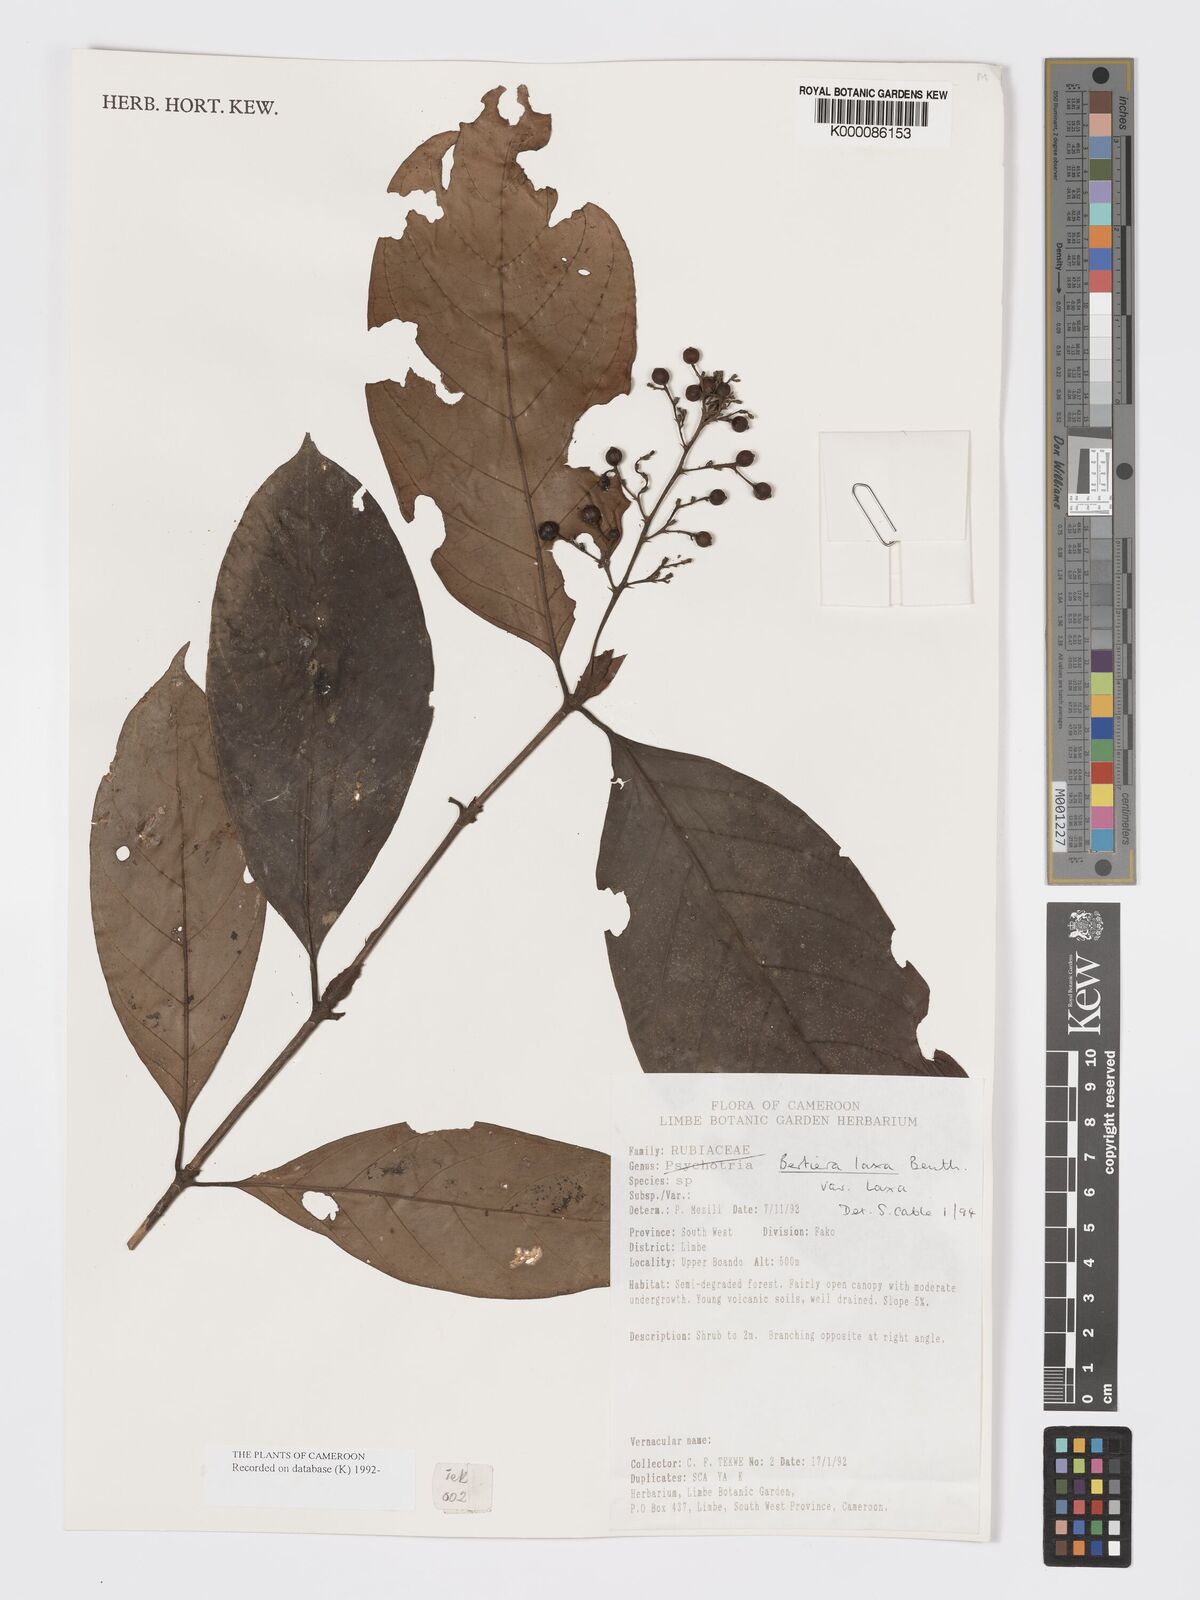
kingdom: Plantae
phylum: Tracheophyta
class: Magnoliopsida
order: Gentianales
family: Rubiaceae
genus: Bertiera
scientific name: Bertiera laxa
